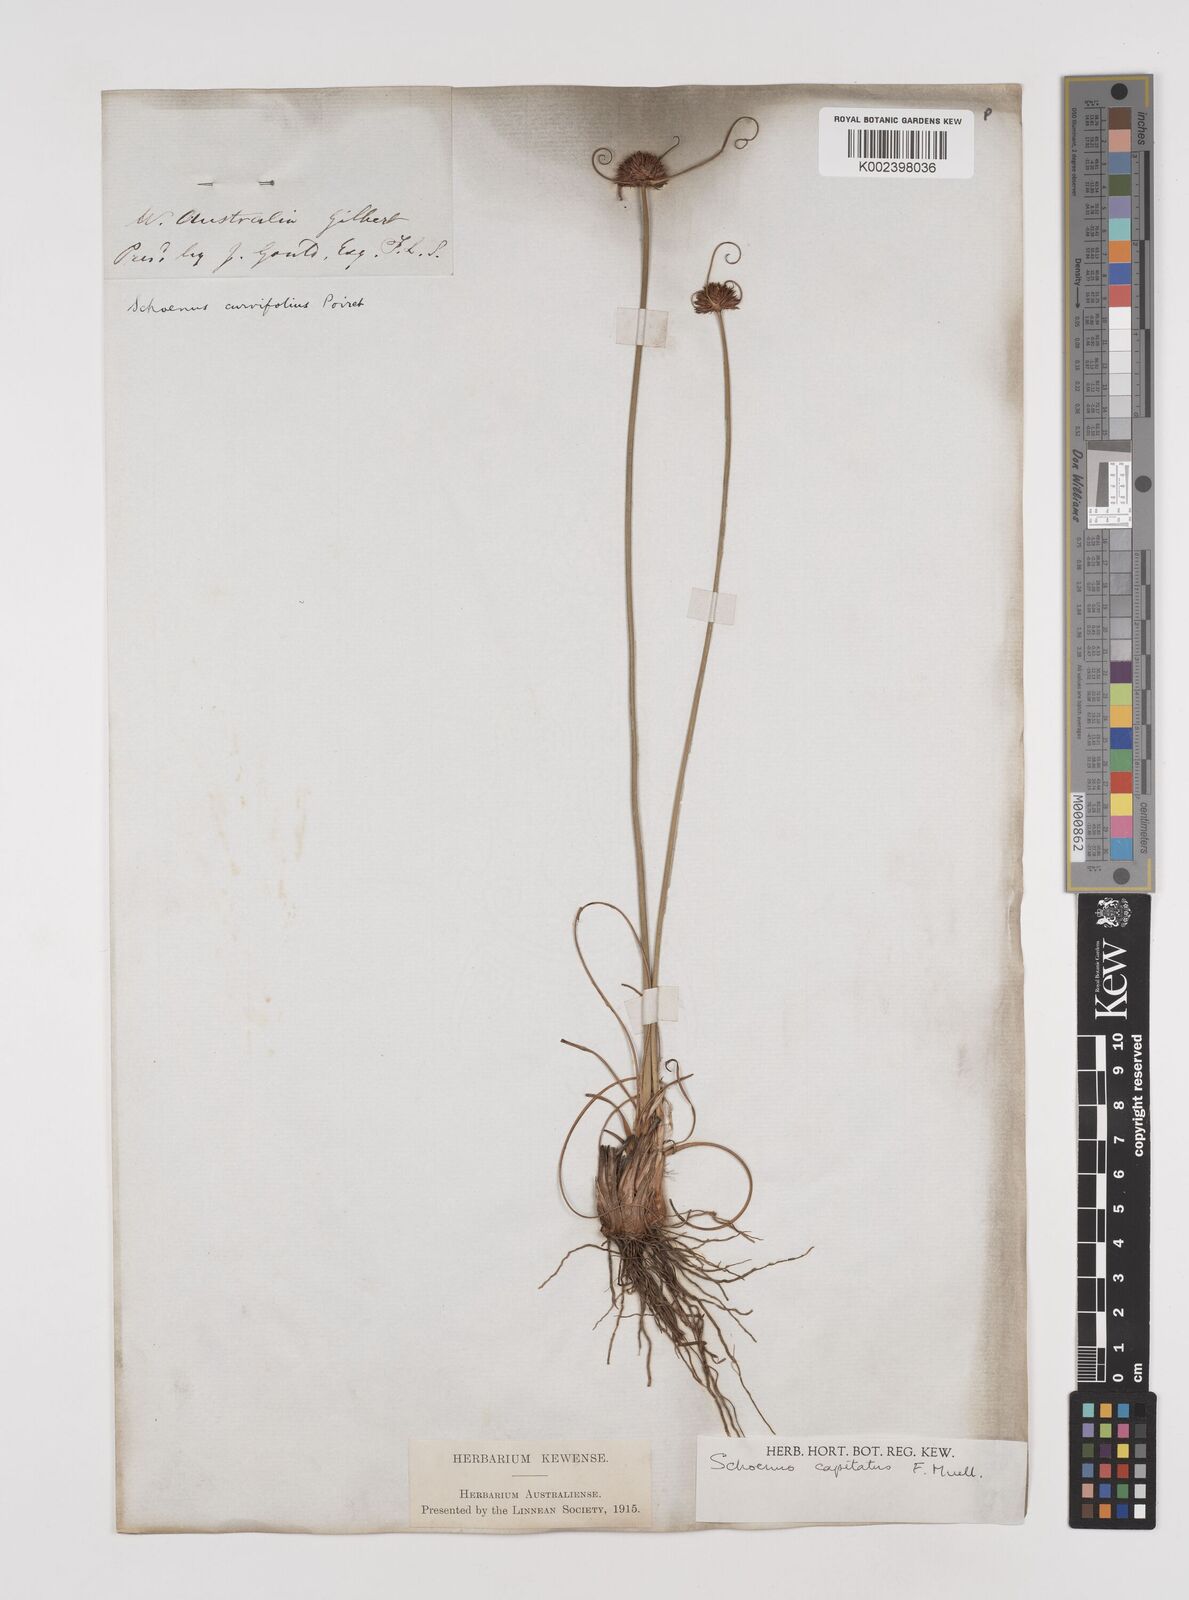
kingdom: Plantae
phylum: Tracheophyta
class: Liliopsida
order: Poales
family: Cyperaceae
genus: Schoenus
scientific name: Schoenus subbulbosus
